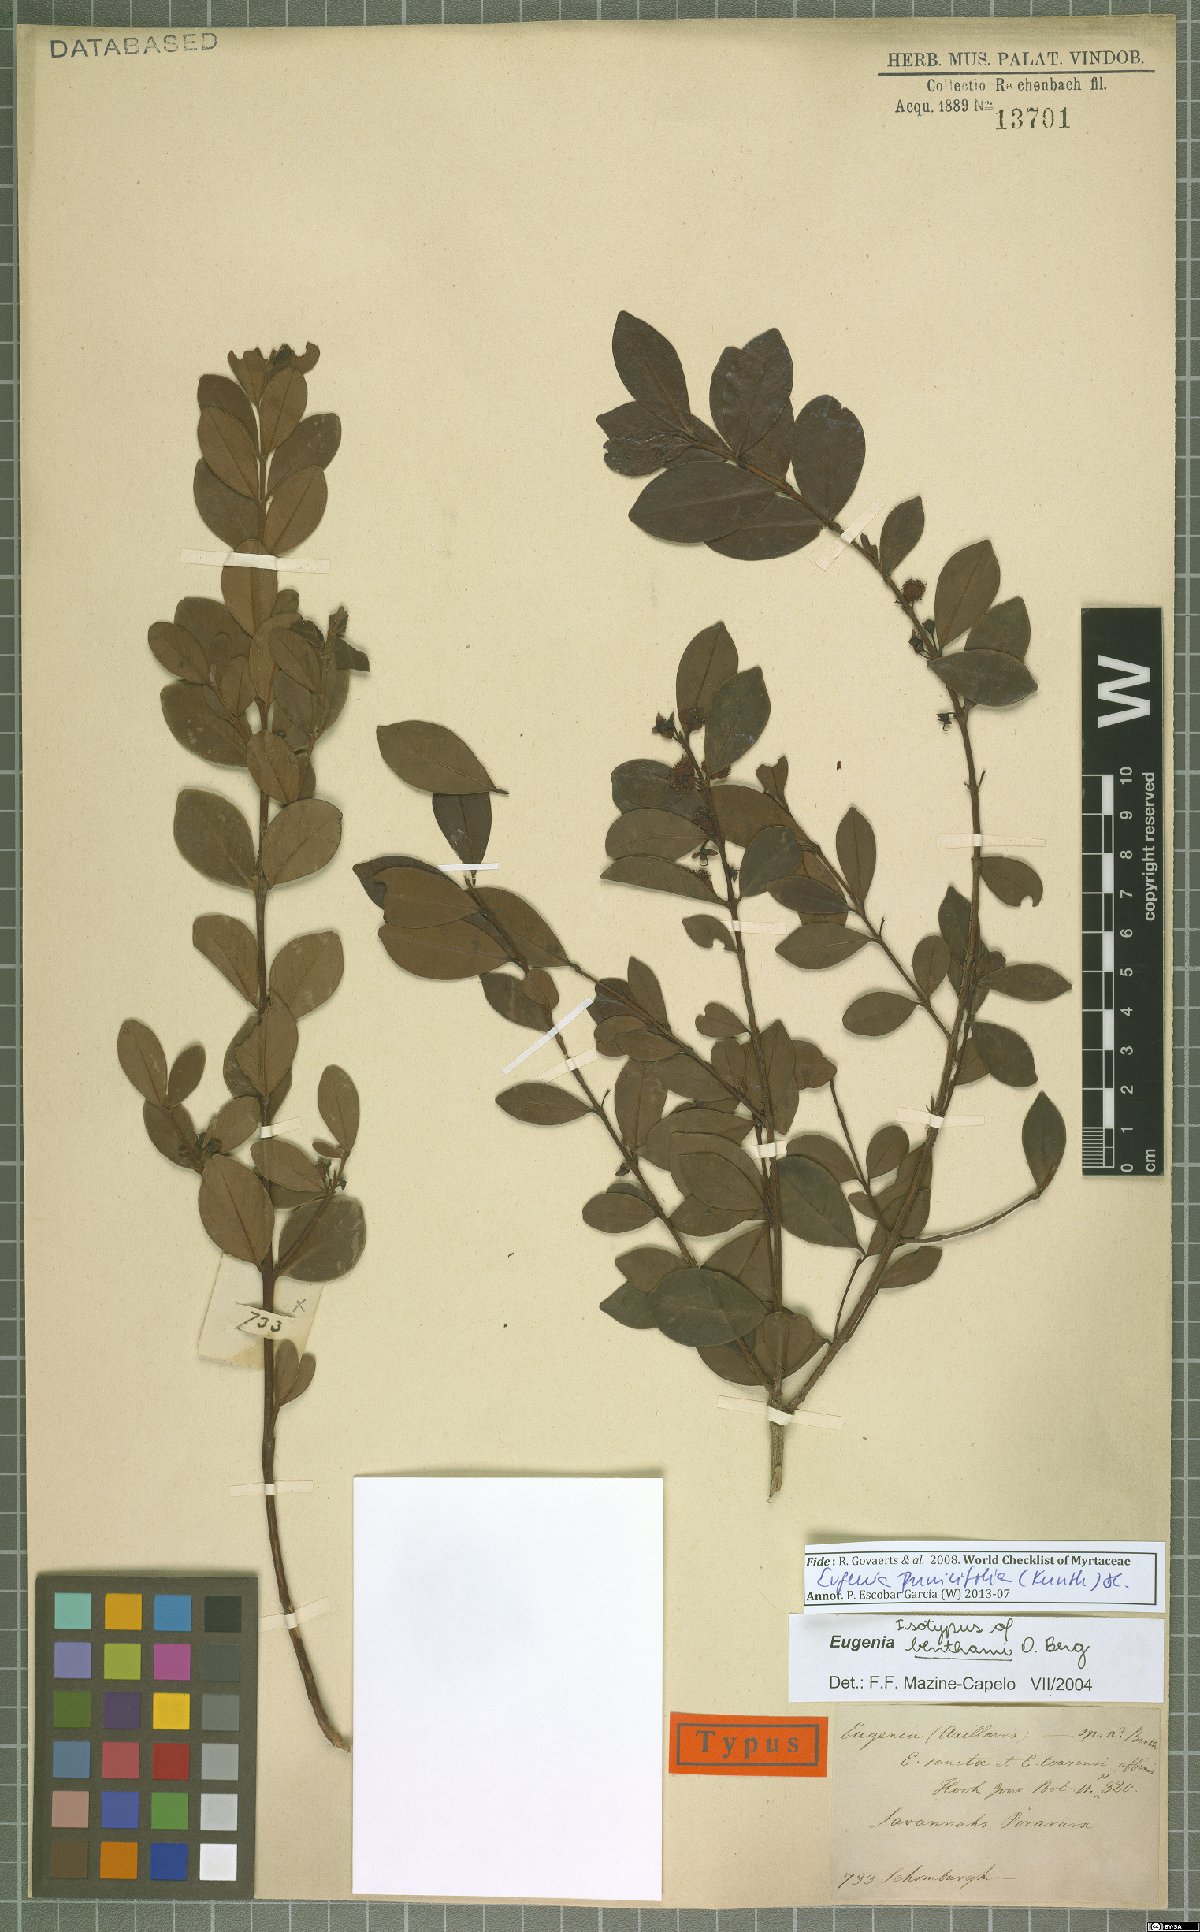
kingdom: Plantae
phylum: Tracheophyta
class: Magnoliopsida
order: Myrtales
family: Myrtaceae
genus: Eugenia
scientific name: Eugenia punicifolia
